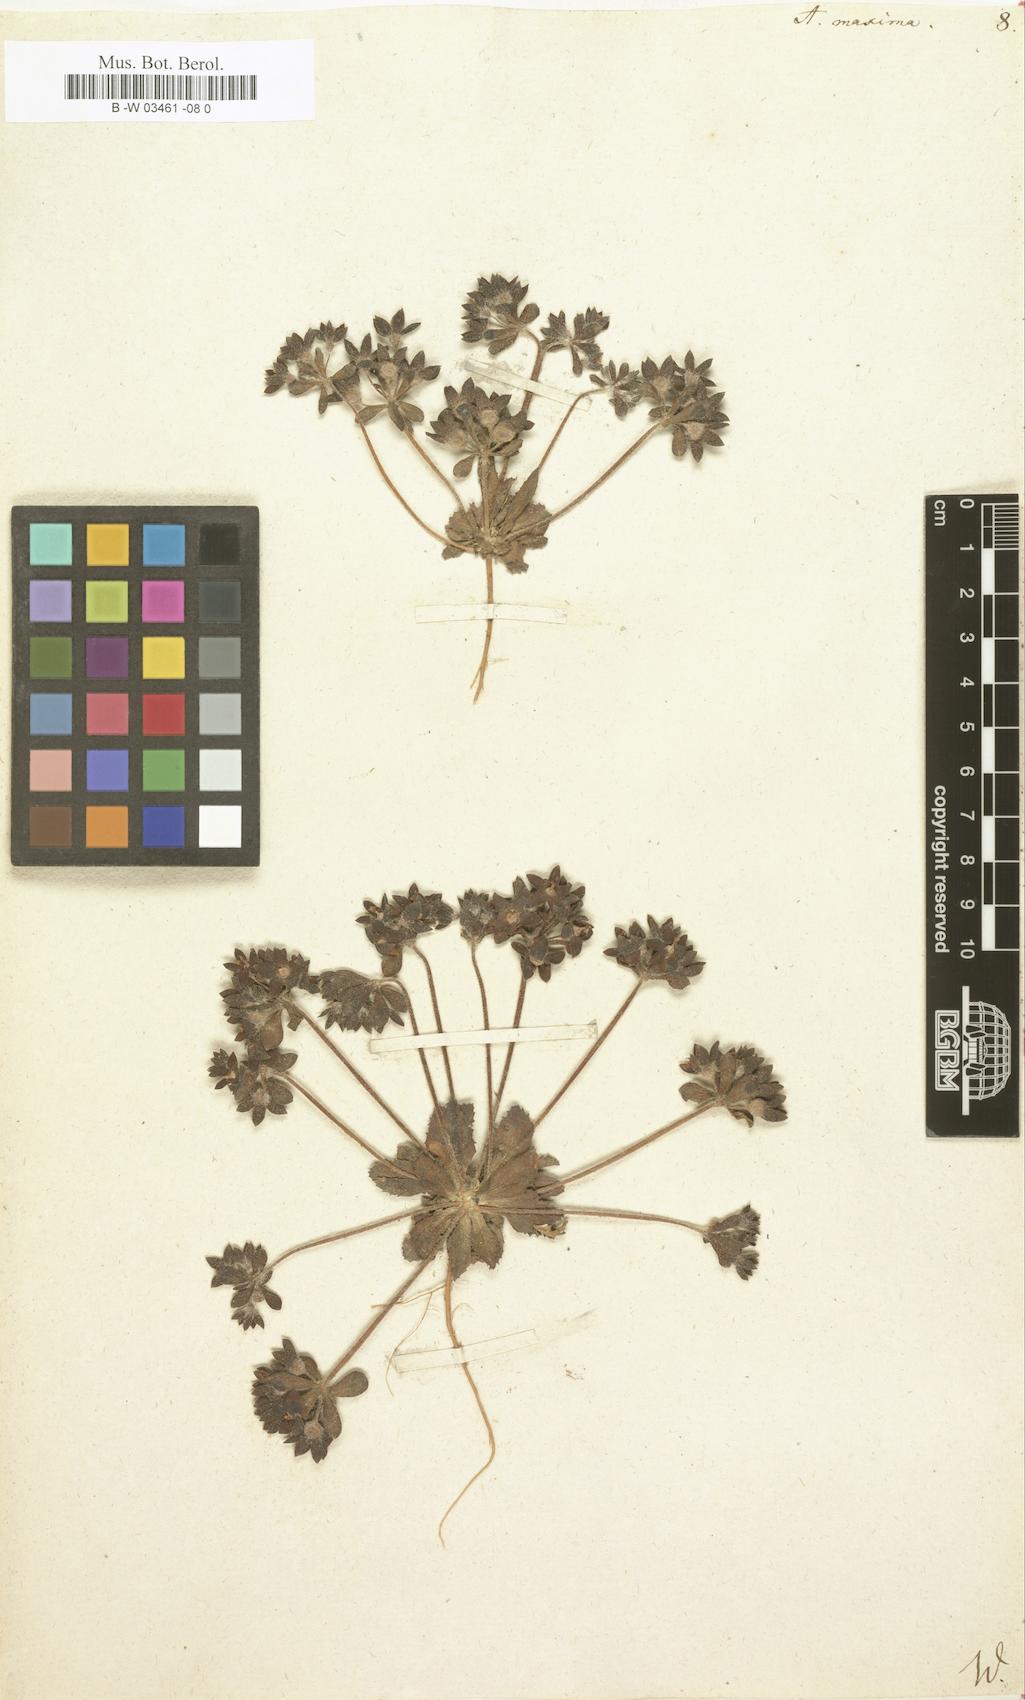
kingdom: Plantae
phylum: Tracheophyta
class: Magnoliopsida
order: Ericales
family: Primulaceae
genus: Androsace
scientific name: Androsace maxima
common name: Annual androsace
